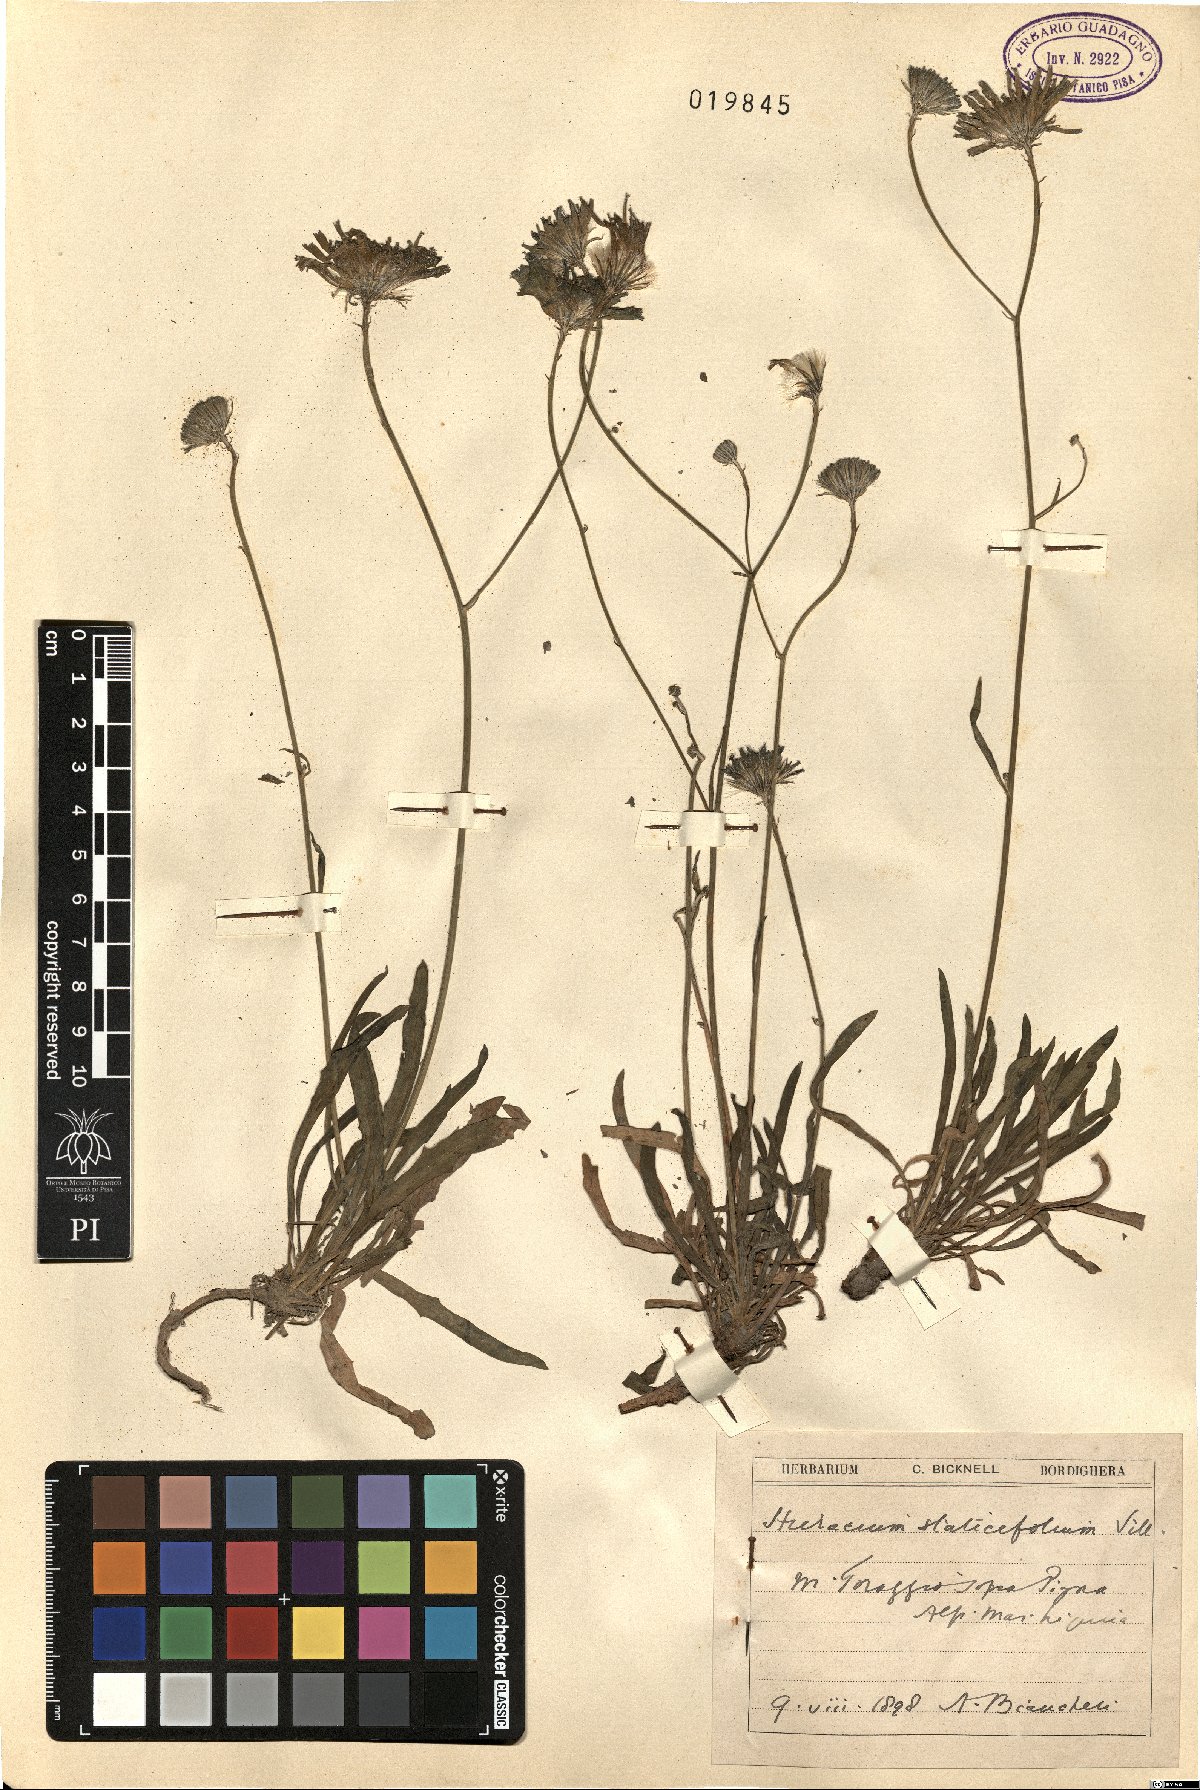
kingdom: Plantae
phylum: Tracheophyta
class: Magnoliopsida
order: Asterales
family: Asteraceae
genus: Tolpis
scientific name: Tolpis staticifolia
